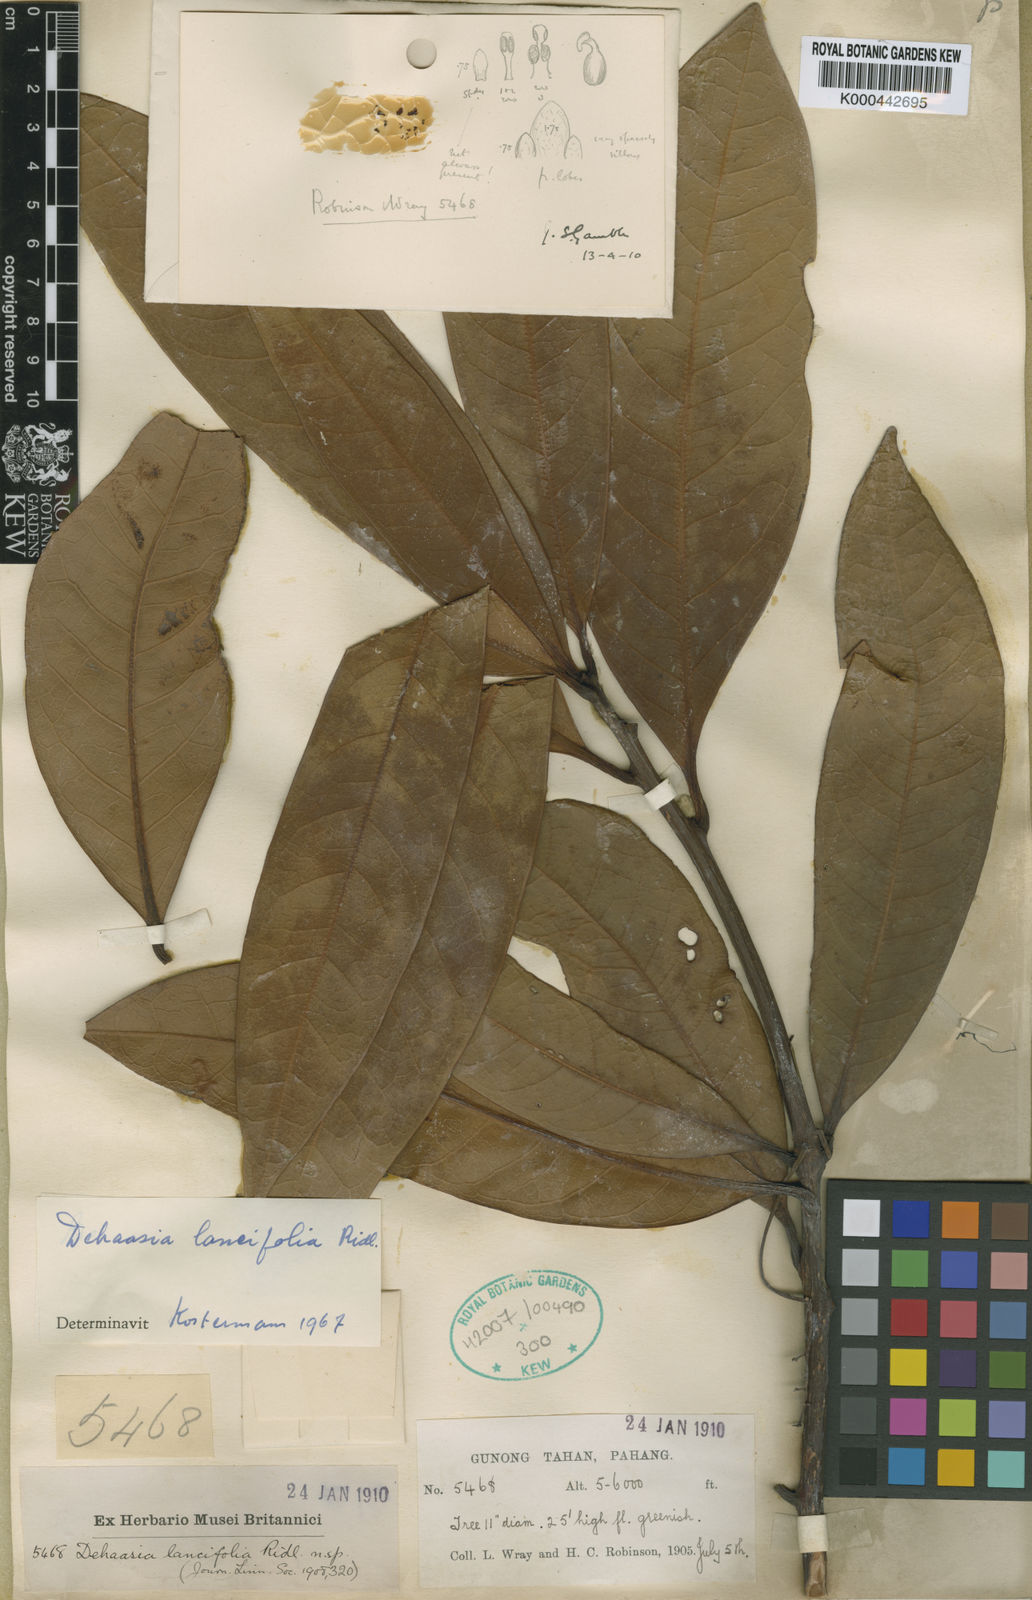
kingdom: Plantae
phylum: Tracheophyta
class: Magnoliopsida
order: Laurales
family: Lauraceae
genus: Dehaasia
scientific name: Dehaasia lancifolia
